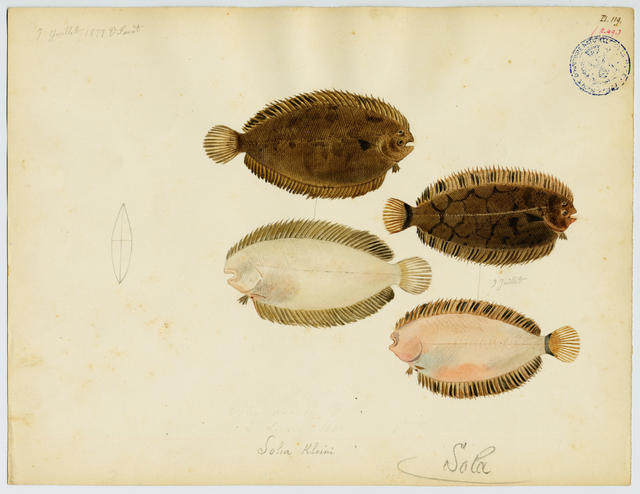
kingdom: Animalia
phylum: Chordata
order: Pleuronectiformes
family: Soleidae
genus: Microchirus
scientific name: Microchirus variegatus
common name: Thickback sole
